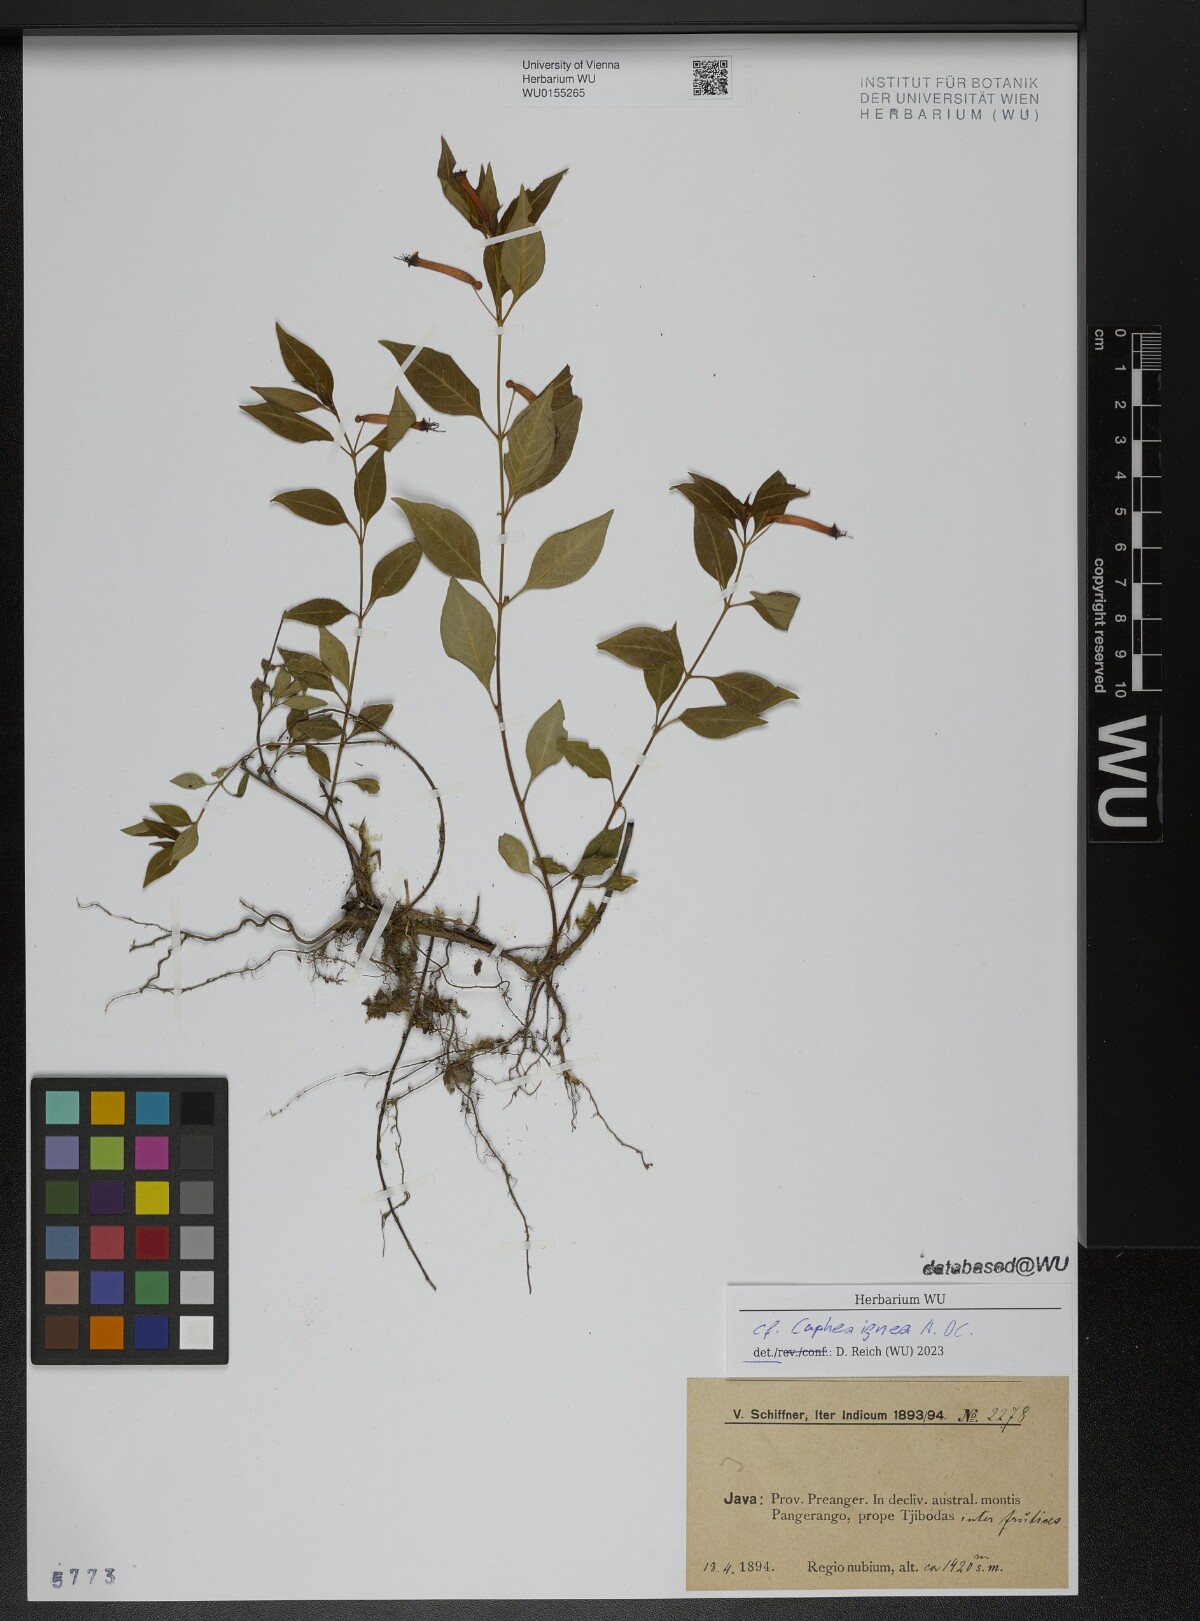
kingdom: Plantae
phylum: Tracheophyta
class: Magnoliopsida
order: Myrtales
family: Lythraceae
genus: Cuphea
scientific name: Cuphea ignea
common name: Cigar flower
